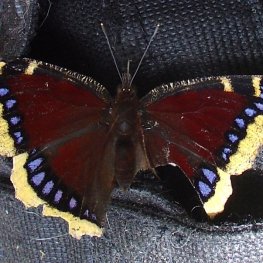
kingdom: Animalia
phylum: Arthropoda
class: Insecta
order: Lepidoptera
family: Nymphalidae
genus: Nymphalis
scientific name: Nymphalis antiopa
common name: Mourning Cloak
